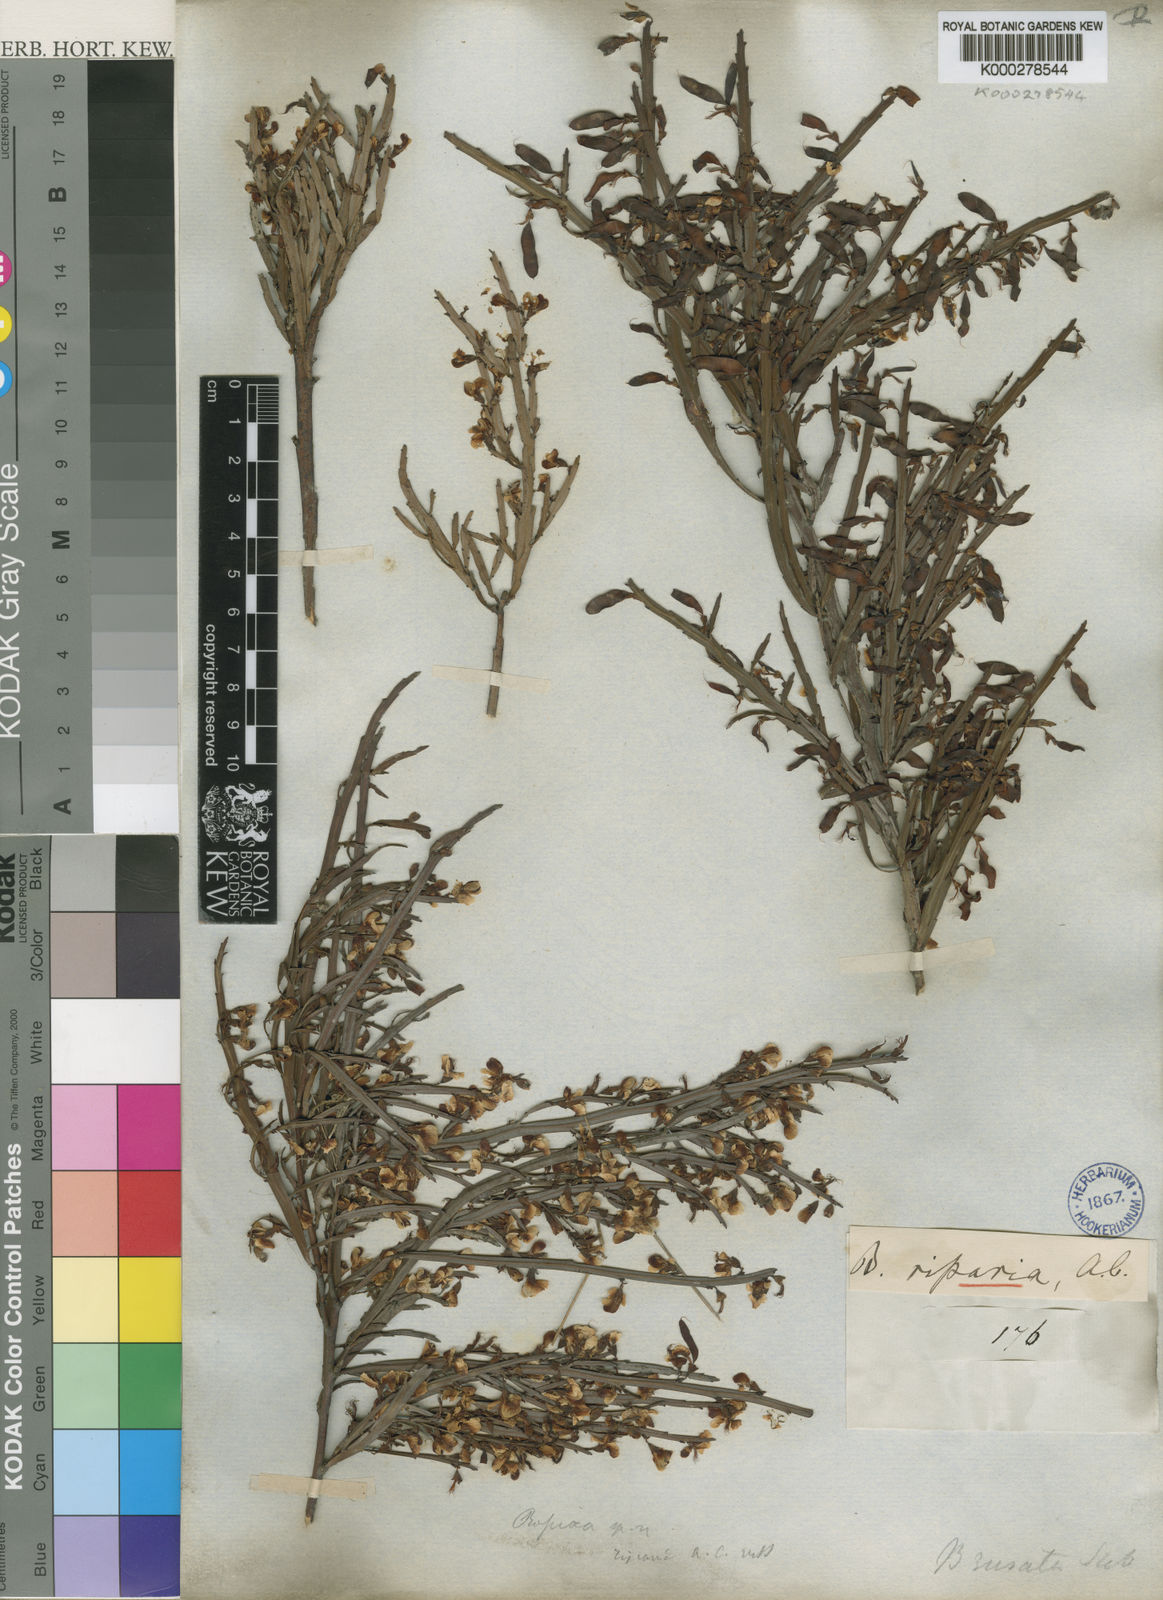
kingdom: Plantae
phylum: Tracheophyta
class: Magnoliopsida
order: Fabales
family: Fabaceae
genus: Bossiaea
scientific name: Bossiaea riparia
